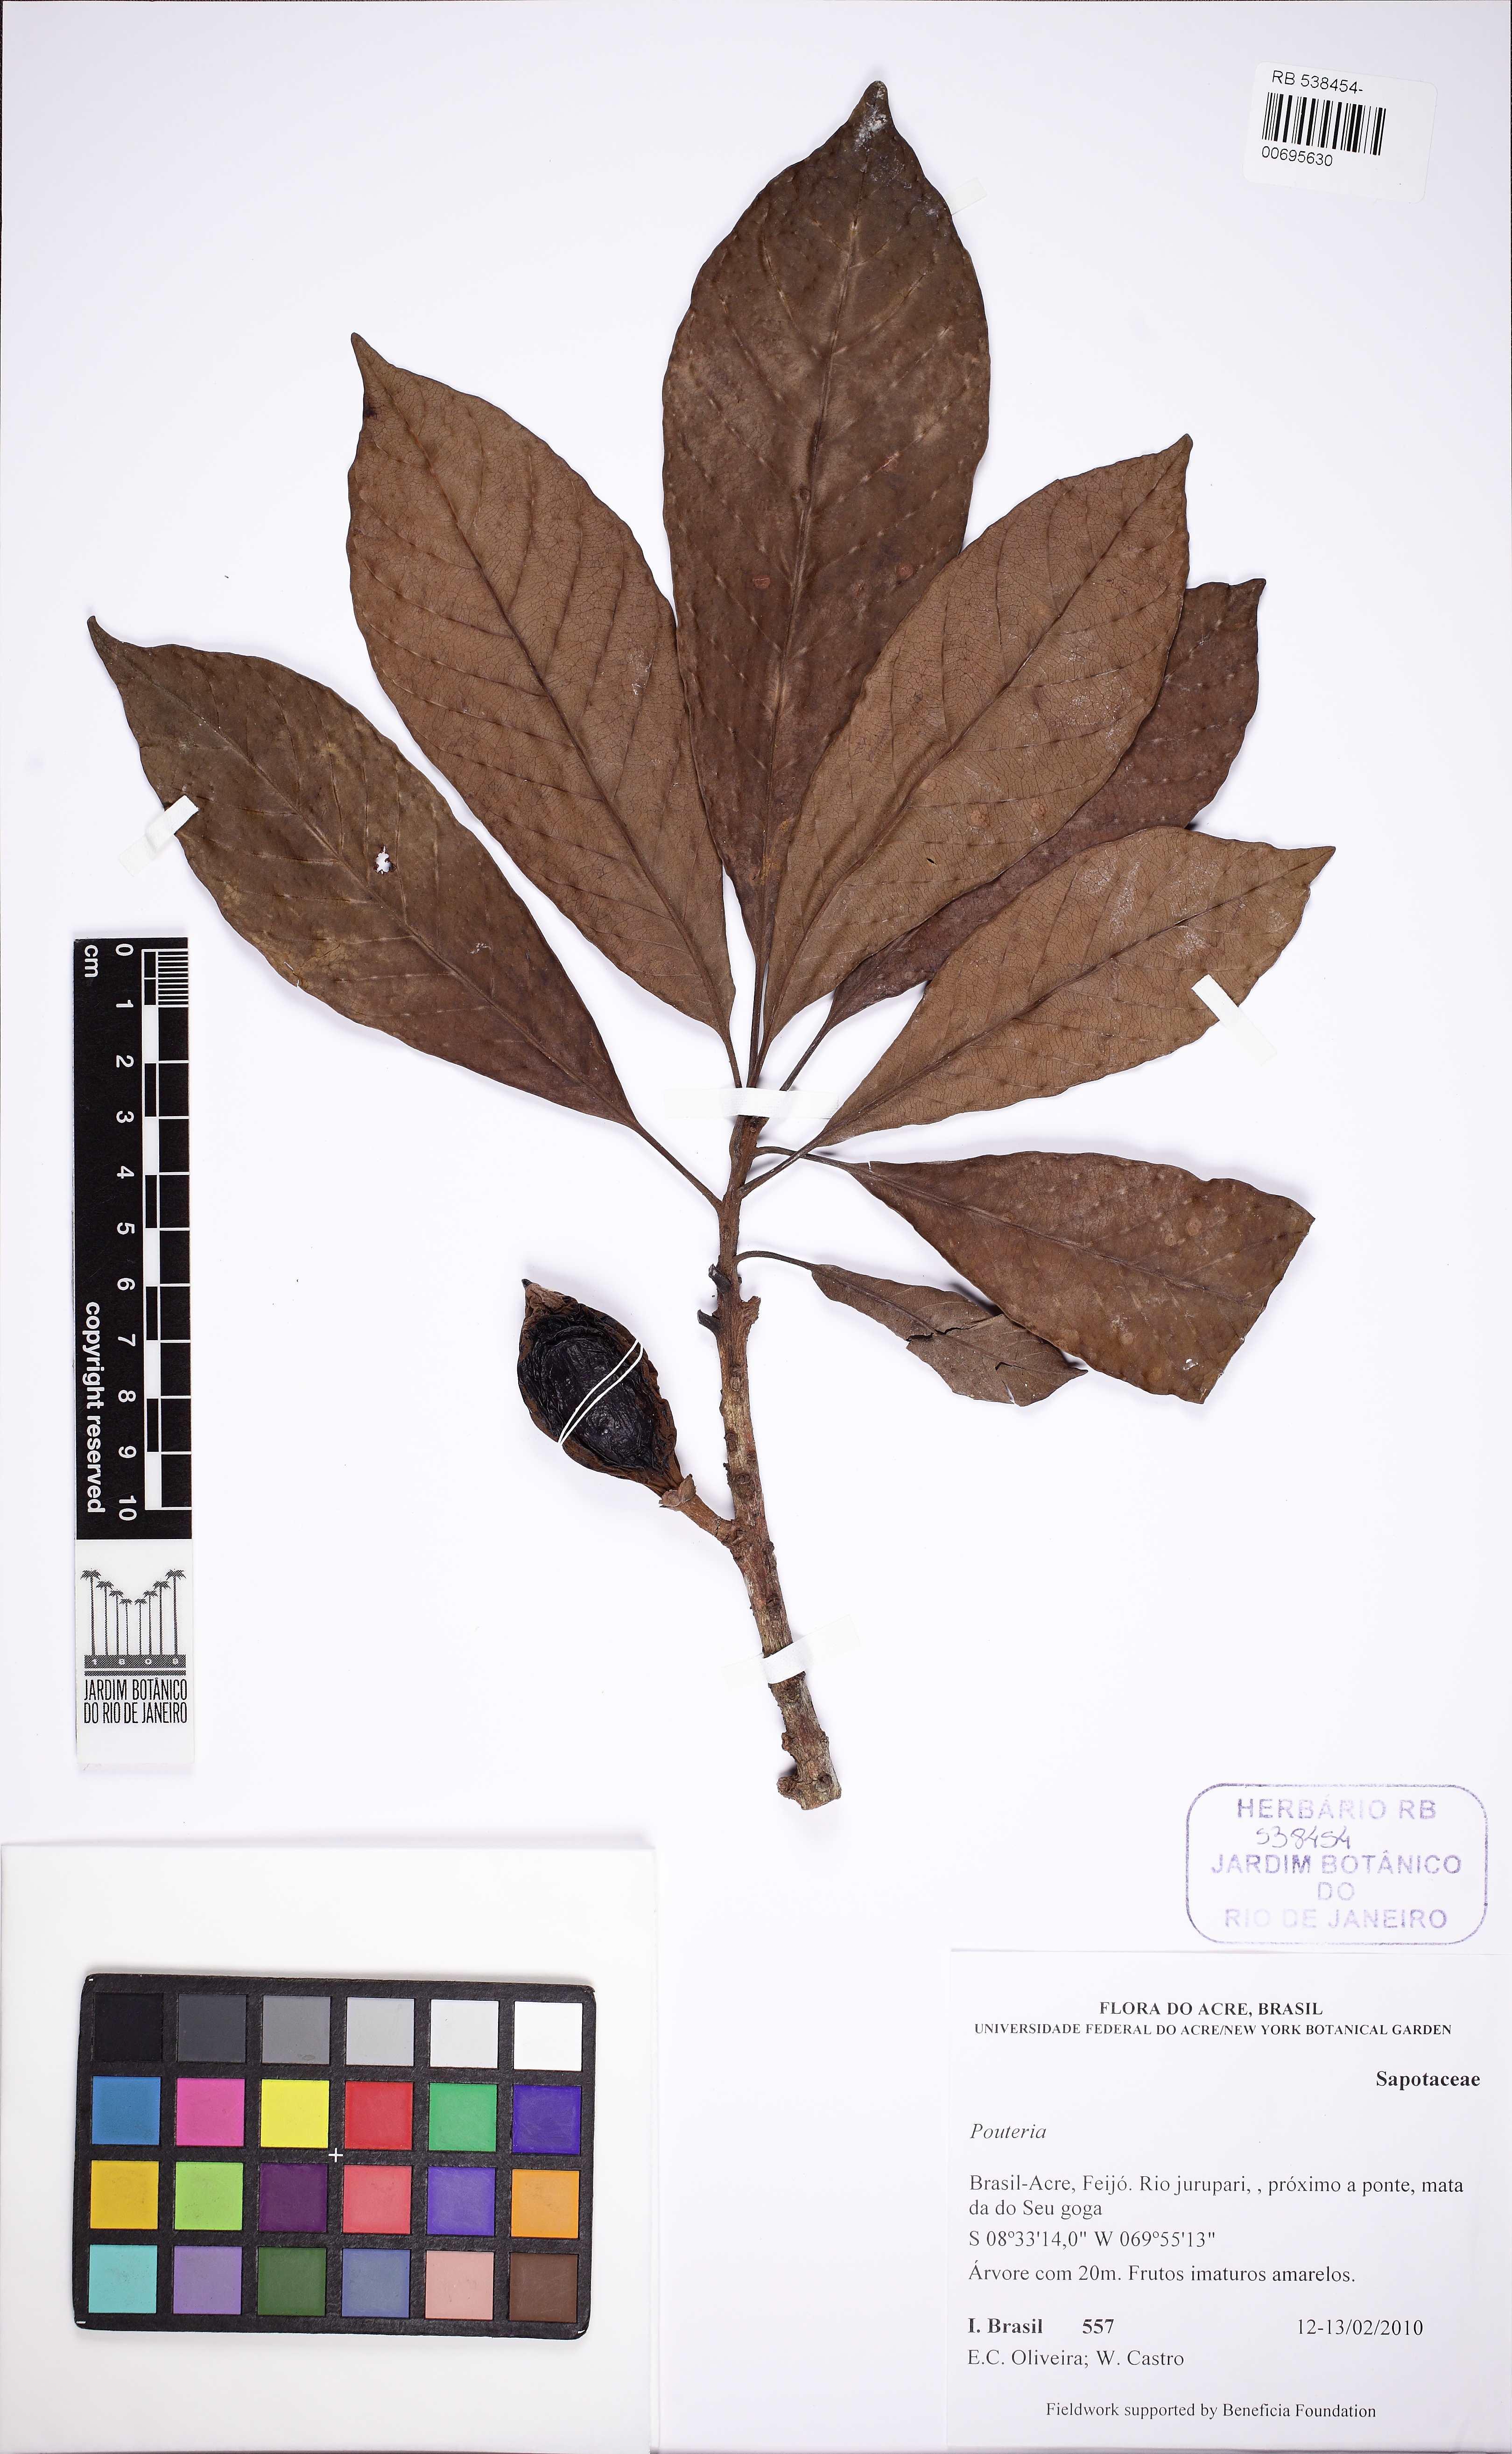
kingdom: Plantae
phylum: Tracheophyta
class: Magnoliopsida
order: Ericales
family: Sapotaceae
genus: Pradosia
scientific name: Pradosia
